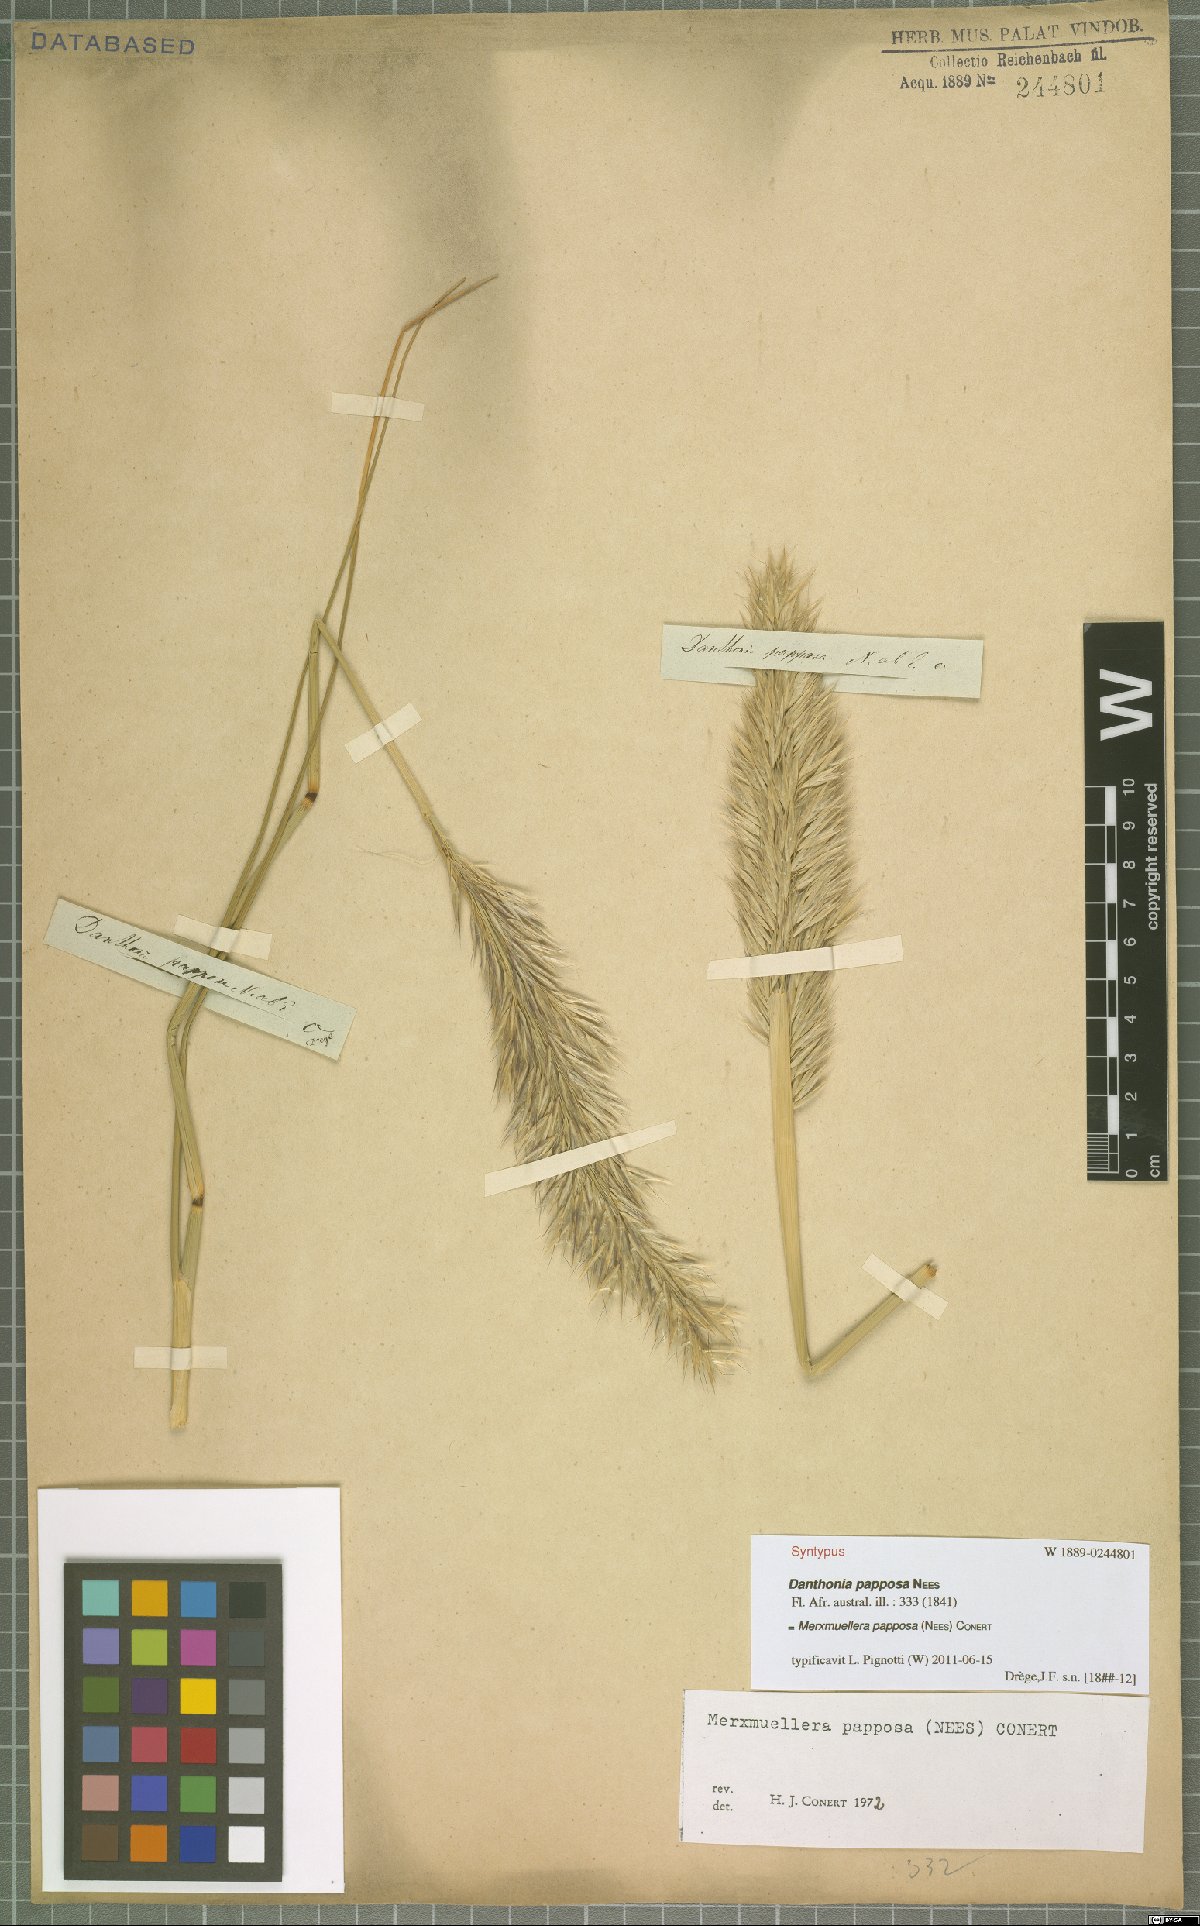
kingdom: Plantae
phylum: Tracheophyta
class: Liliopsida
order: Poales
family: Poaceae
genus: Ellisochloa
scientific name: Ellisochloa papposa
